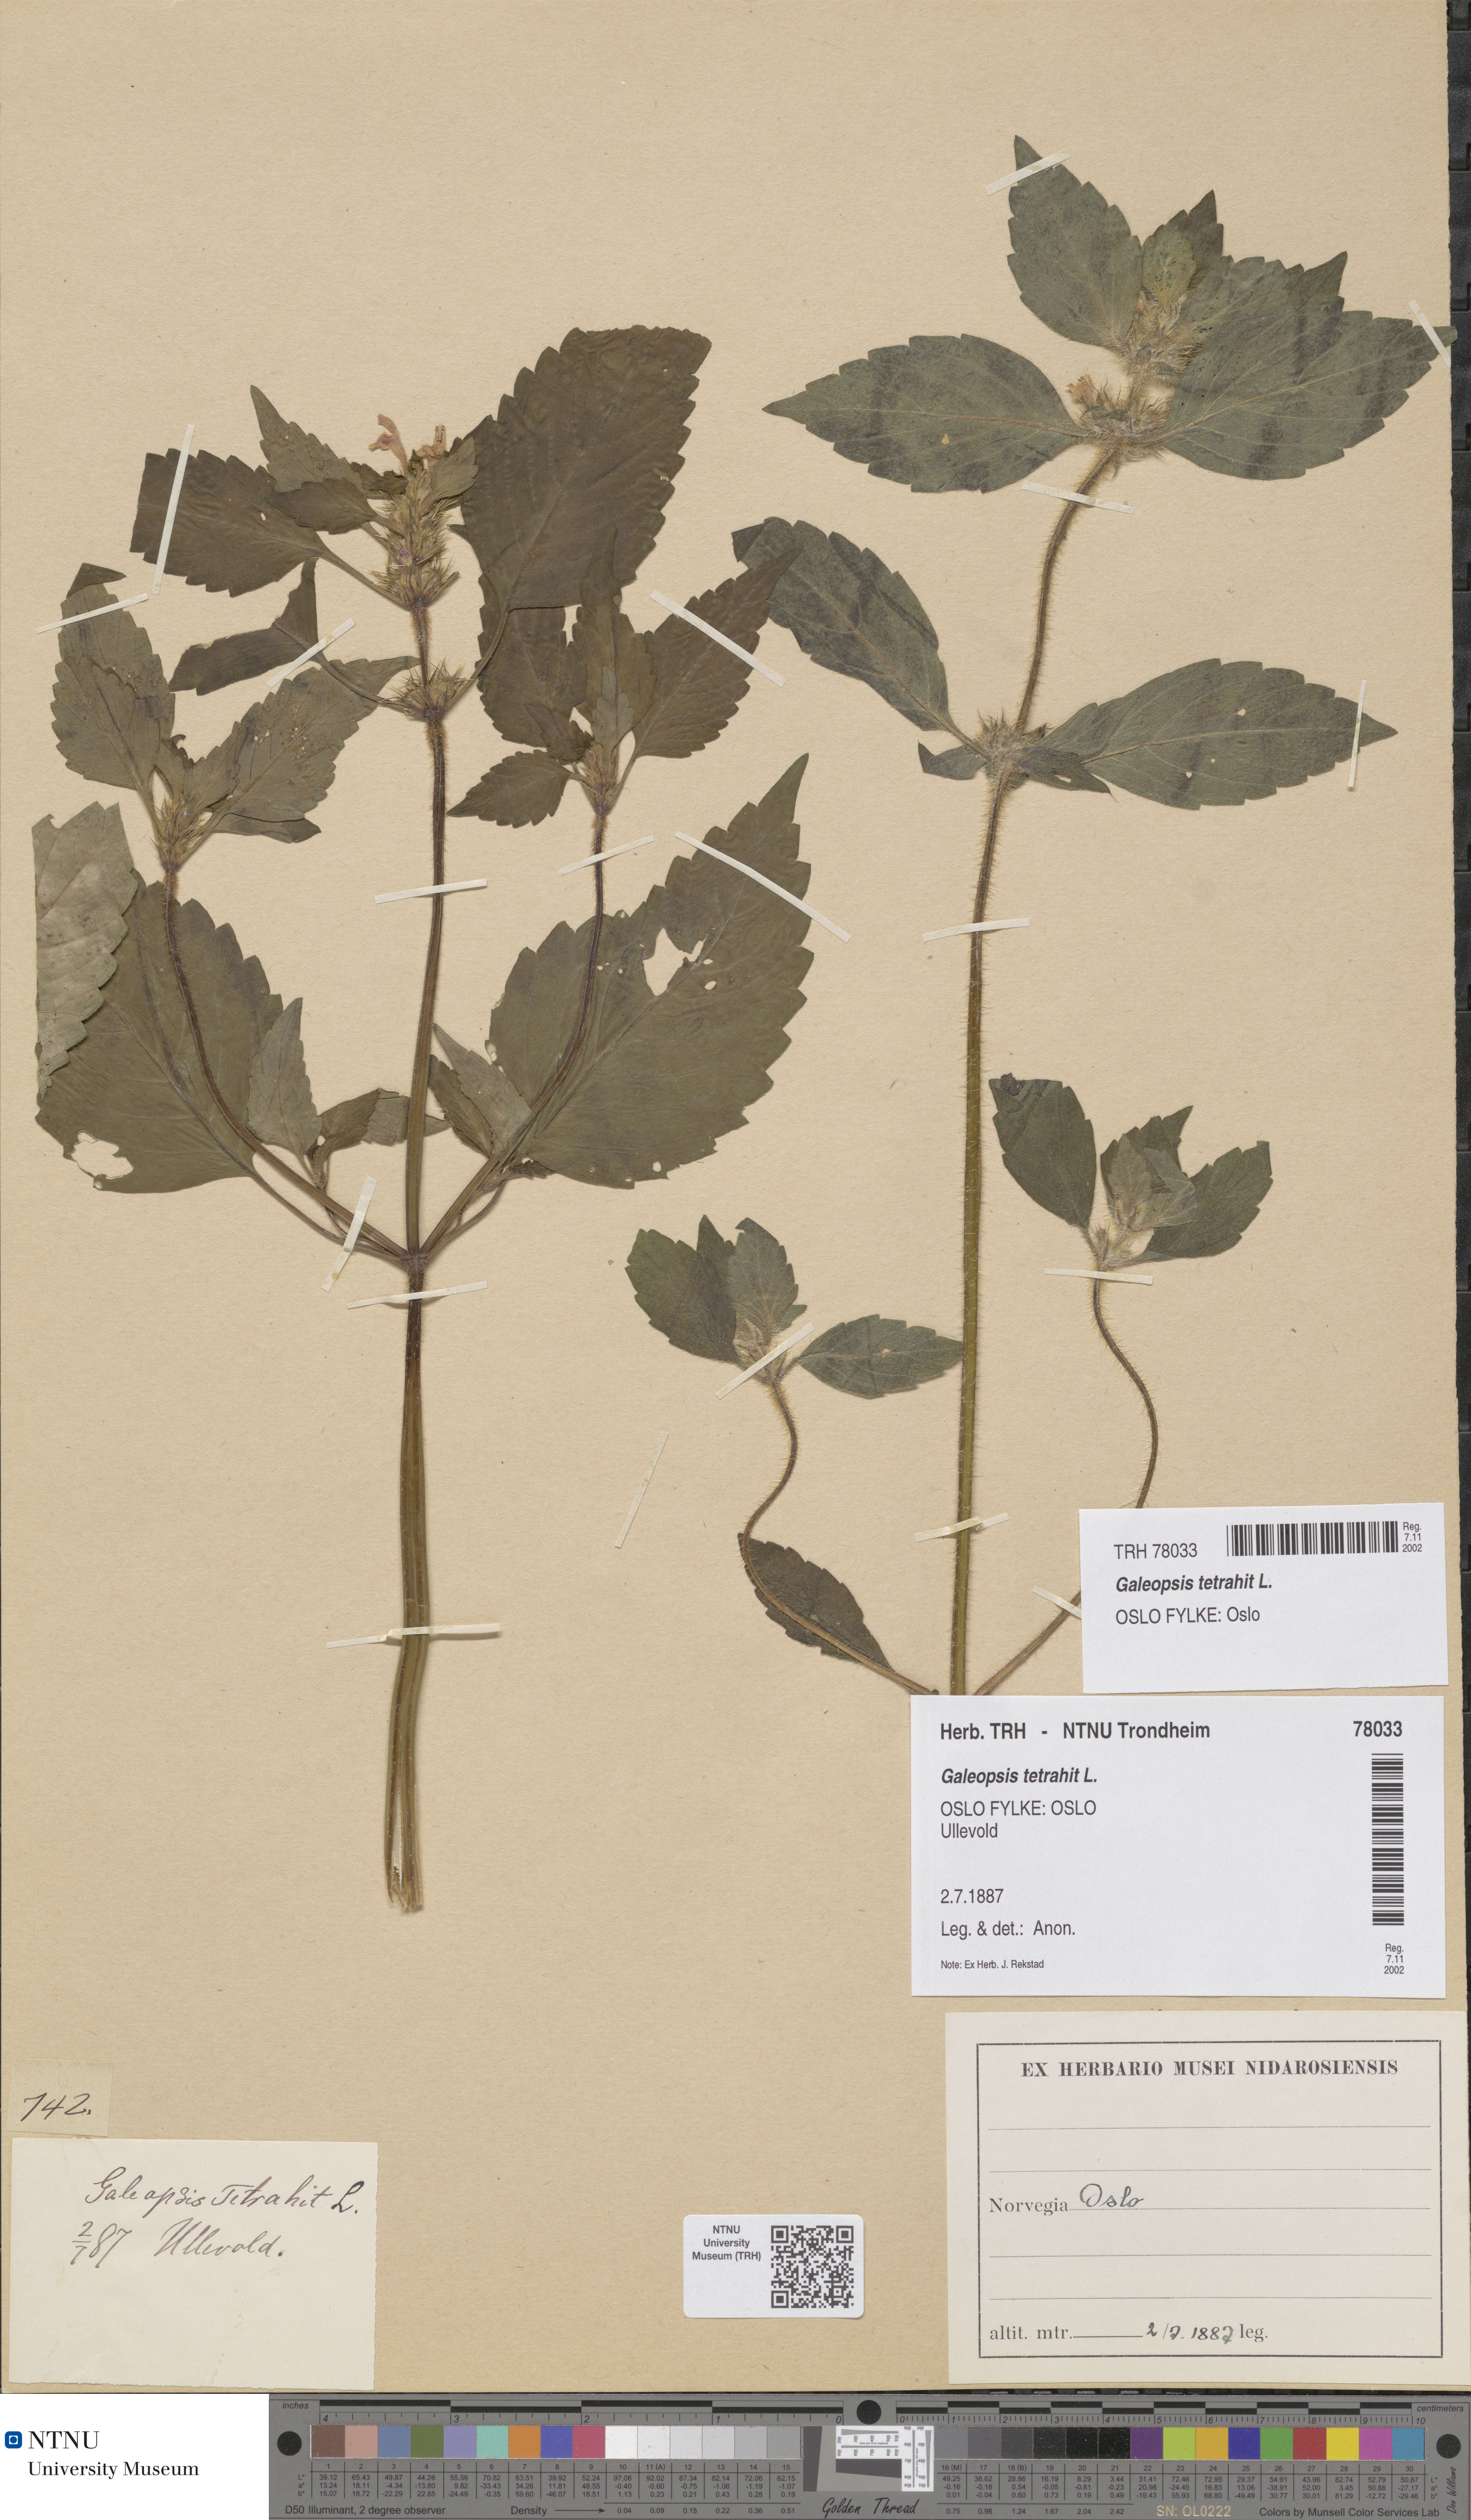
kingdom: Plantae
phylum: Tracheophyta
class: Magnoliopsida
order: Lamiales
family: Lamiaceae
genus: Galeopsis
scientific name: Galeopsis tetrahit
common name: Common hemp-nettle
